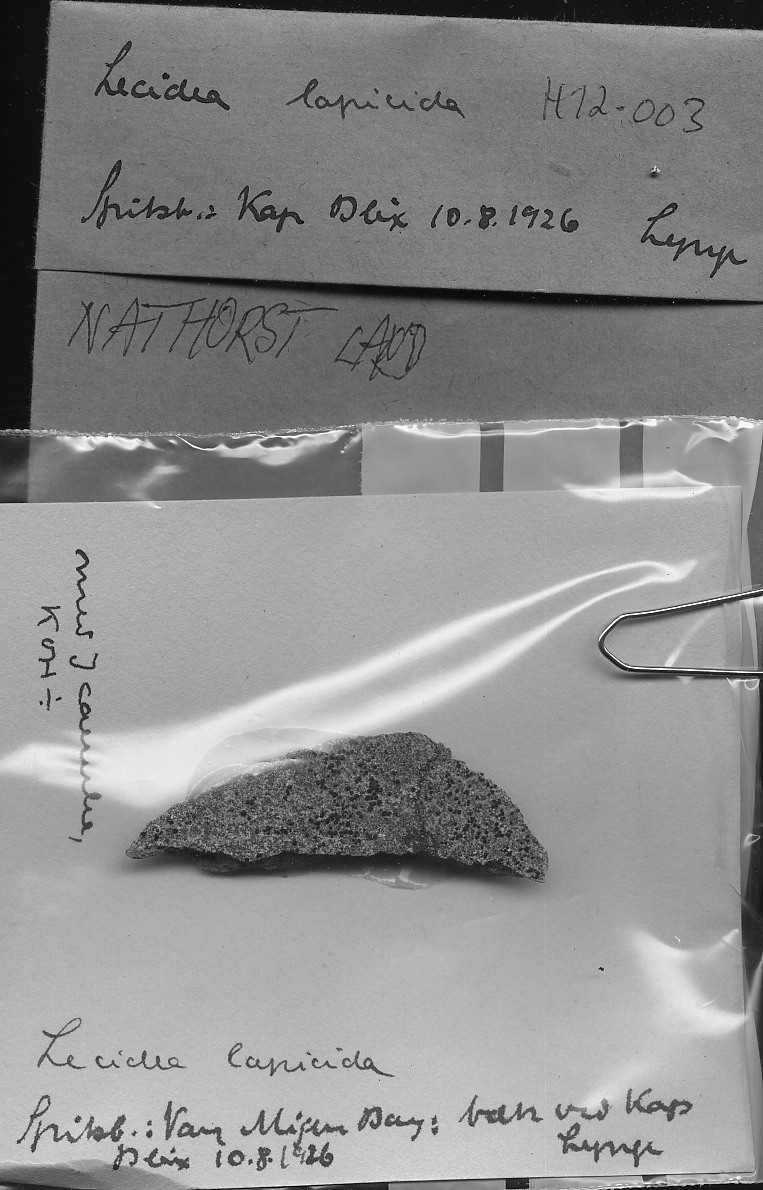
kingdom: Fungi
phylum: Ascomycota
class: Lecanoromycetes
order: Lecideales
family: Lecideaceae
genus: Lecidea
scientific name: Lecidea lapicida
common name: Gray-orange disk lichen
